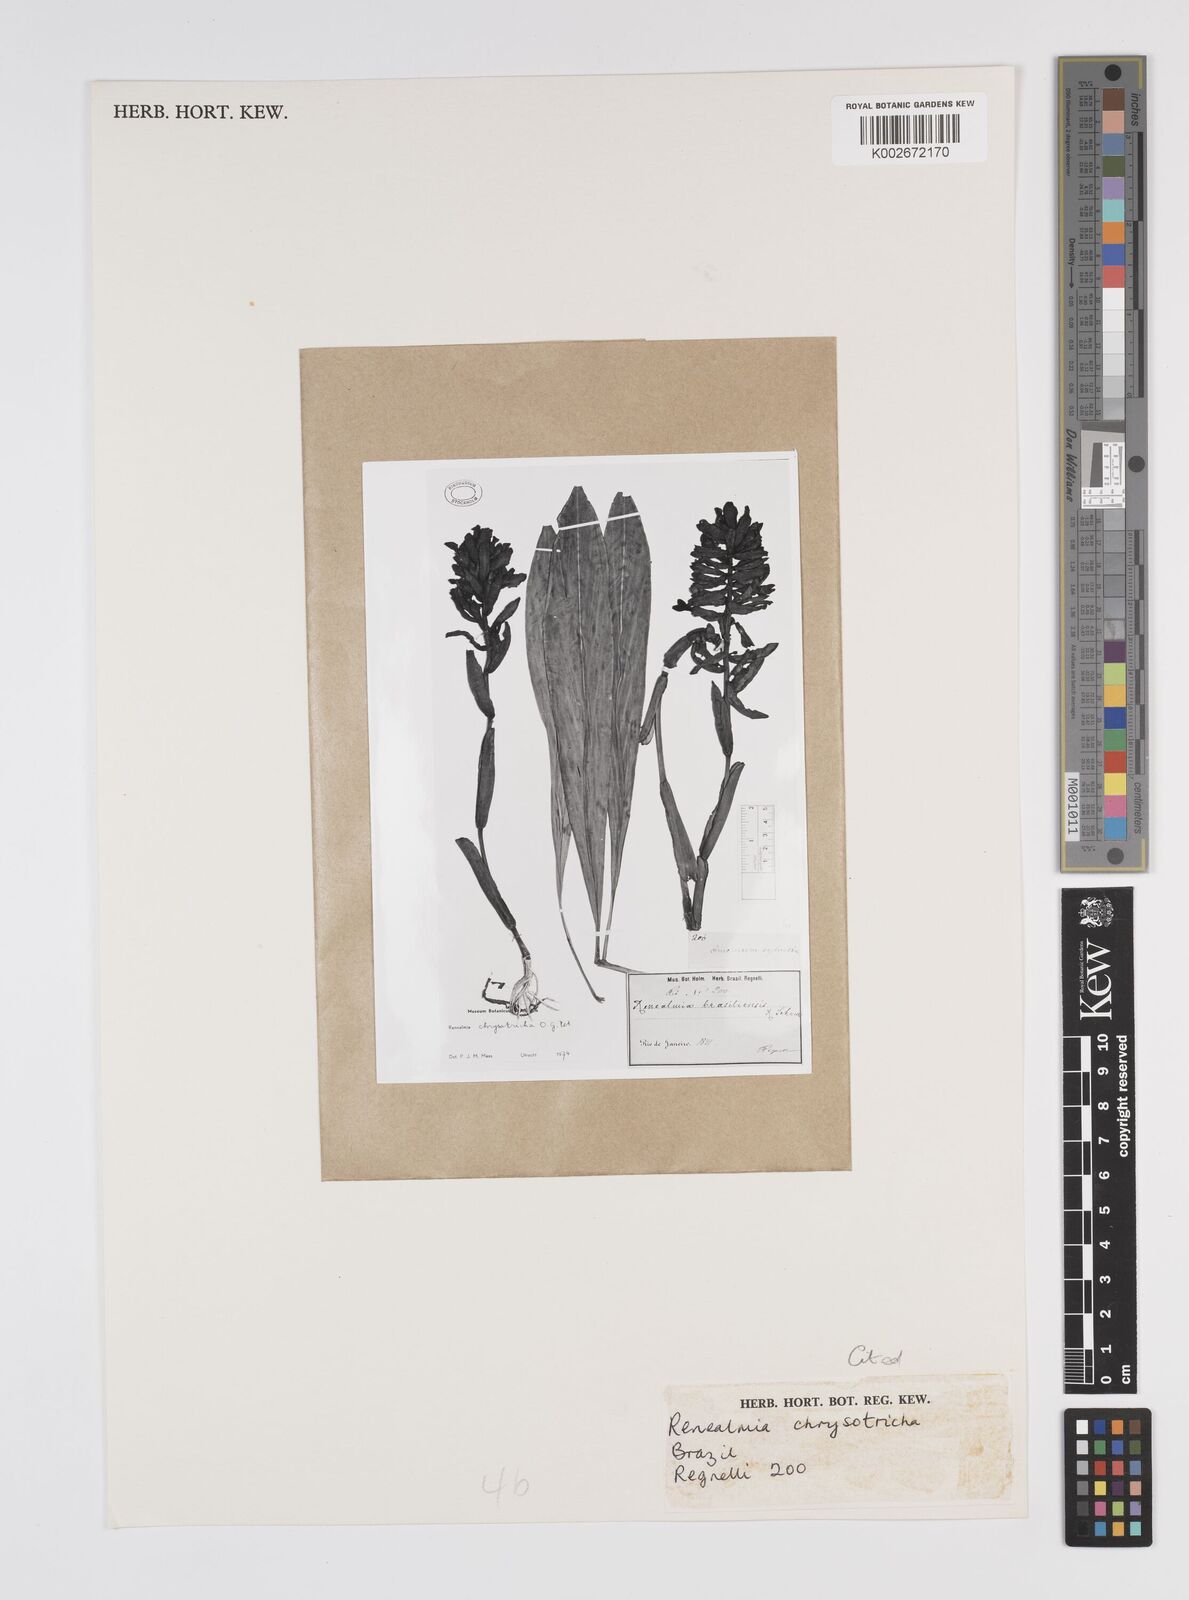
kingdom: Plantae
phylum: Tracheophyta
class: Liliopsida
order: Zingiberales
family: Zingiberaceae
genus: Renealmia
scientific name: Renealmia chrysotricha
